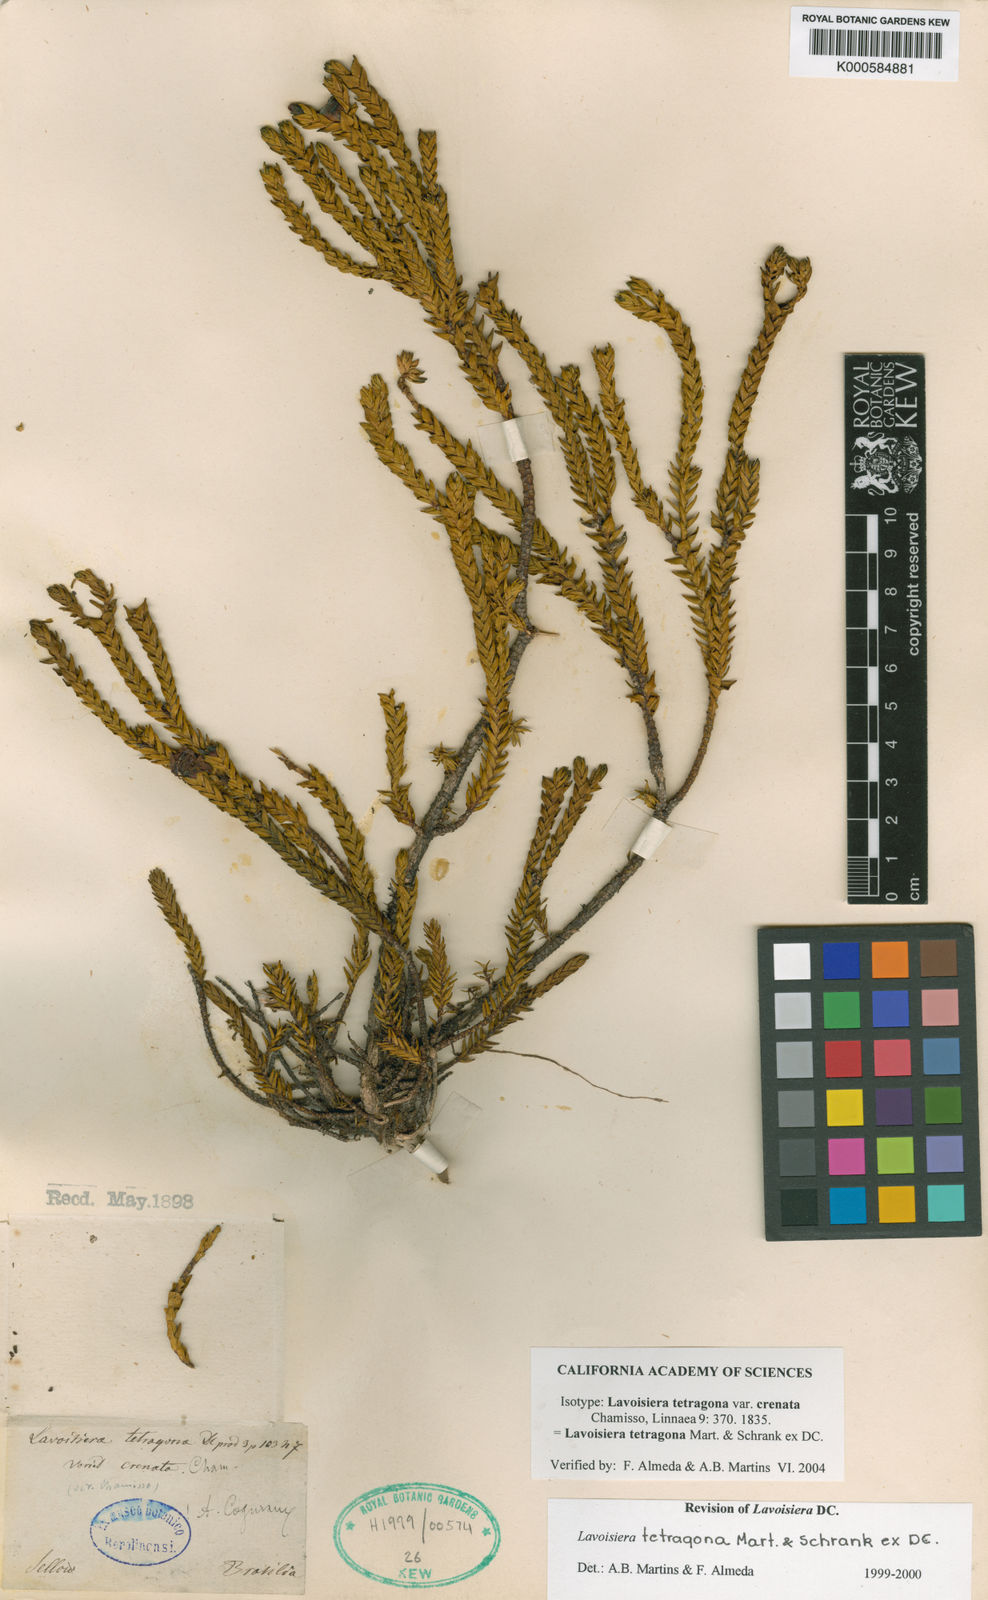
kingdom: Plantae
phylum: Tracheophyta
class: Magnoliopsida
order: Myrtales
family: Melastomataceae
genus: Microlicia
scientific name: Microlicia tetragona
